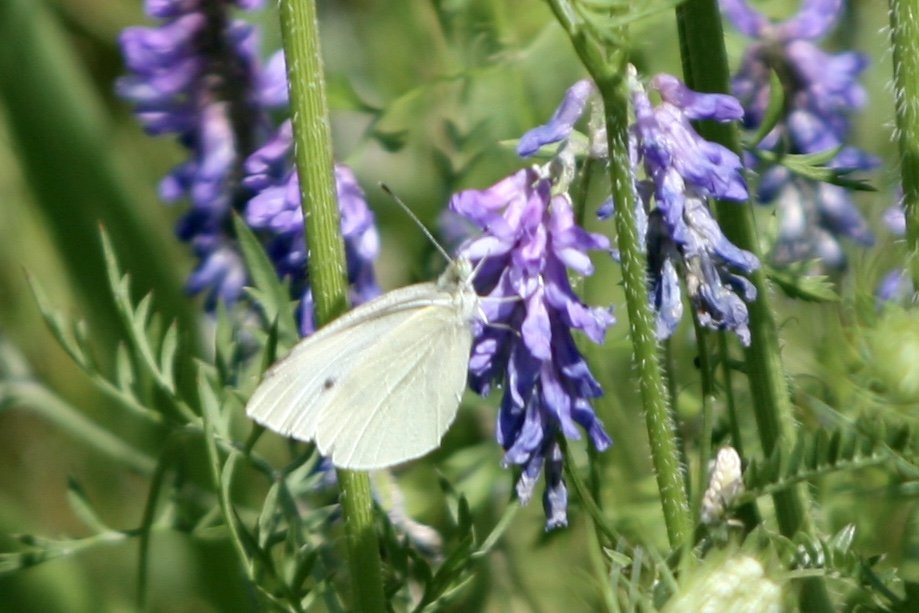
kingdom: Animalia
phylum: Arthropoda
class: Insecta
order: Lepidoptera
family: Pieridae
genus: Pieris
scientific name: Pieris rapae
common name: Cabbage White
